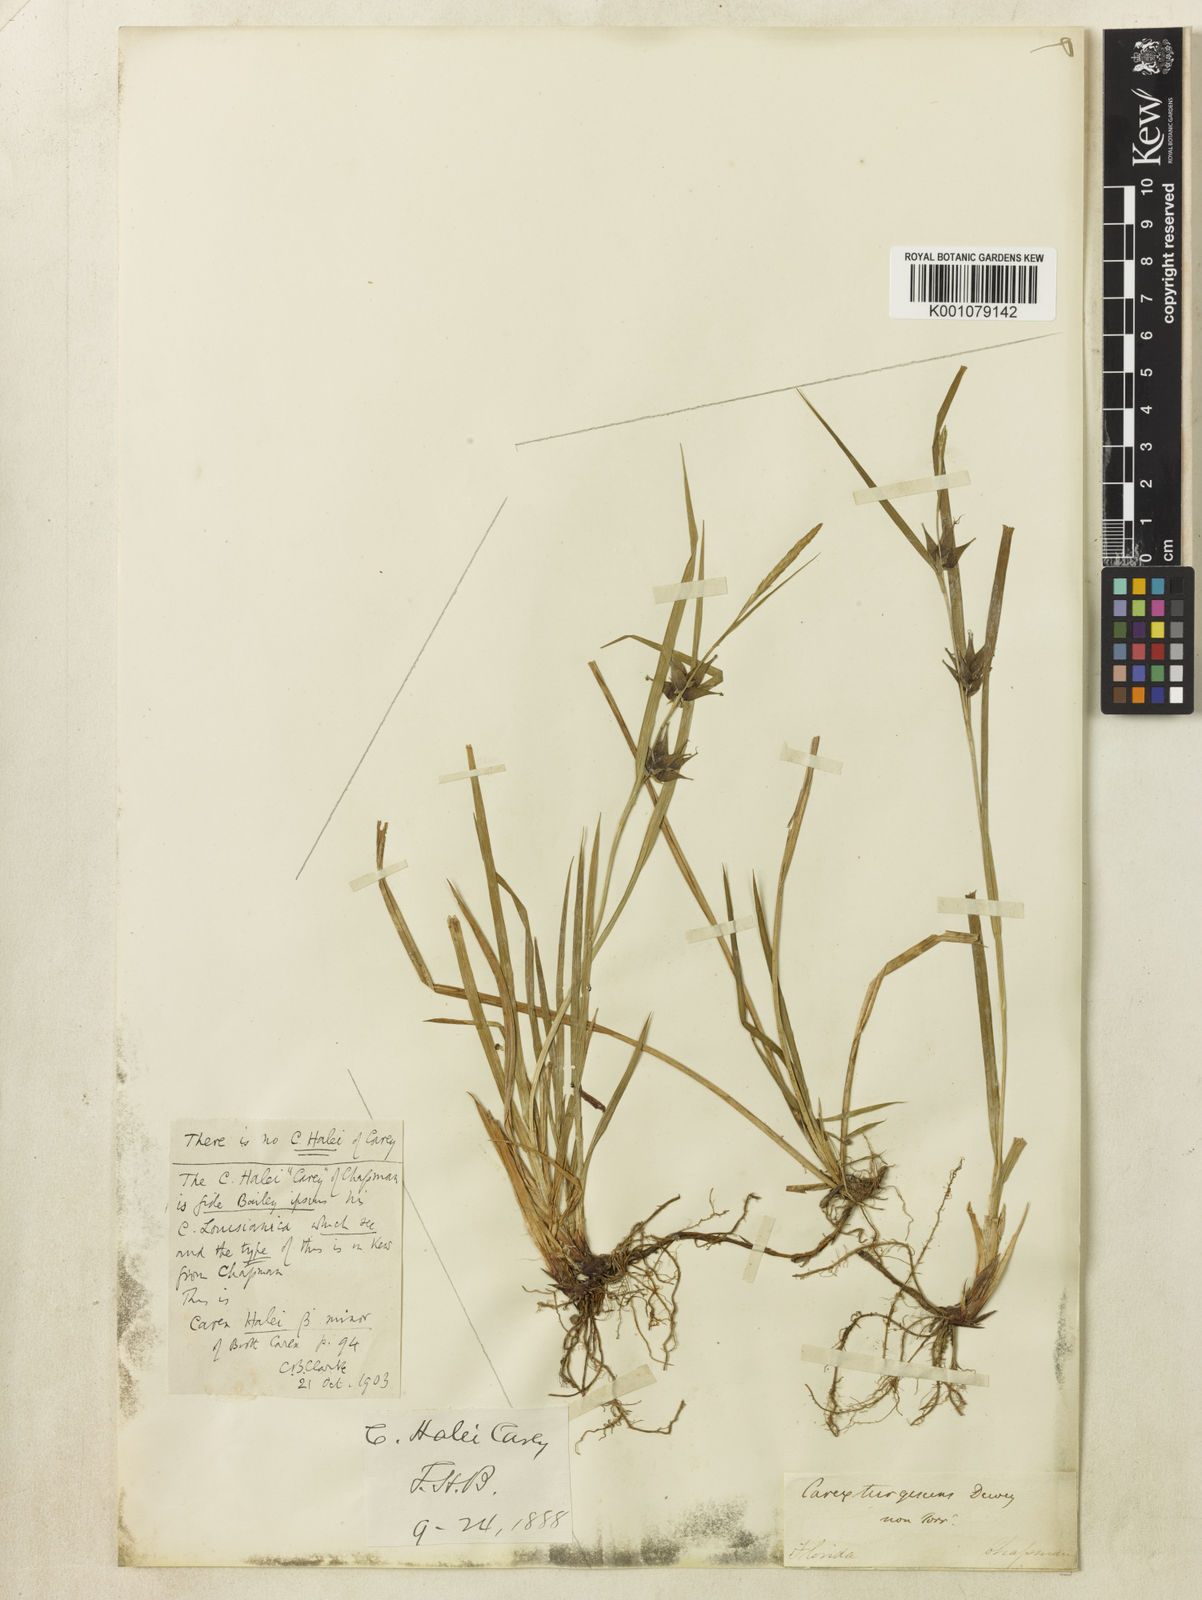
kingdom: Plantae
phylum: Tracheophyta
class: Liliopsida
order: Poales
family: Cyperaceae
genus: Carex
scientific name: Carex louisianica
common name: Louisiana sedge
